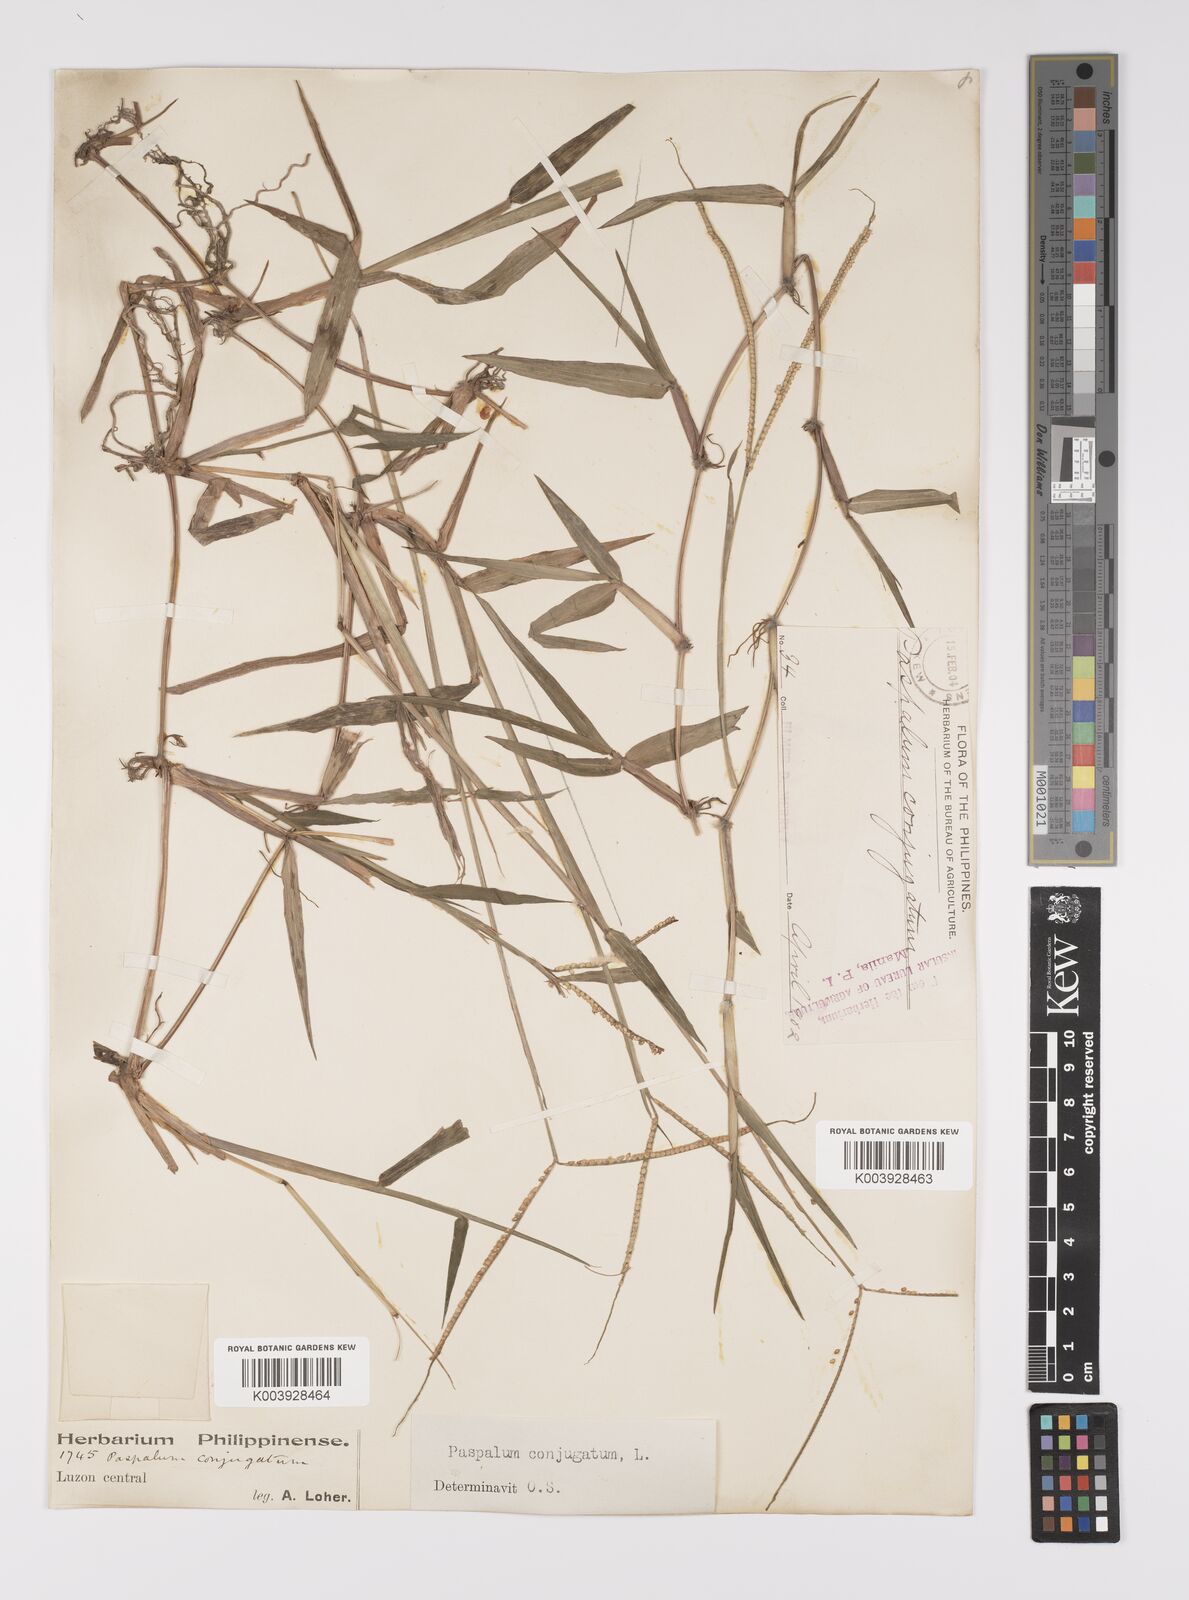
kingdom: Plantae
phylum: Tracheophyta
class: Liliopsida
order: Poales
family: Poaceae
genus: Paspalum
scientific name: Paspalum conjugatum
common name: Hilograss
